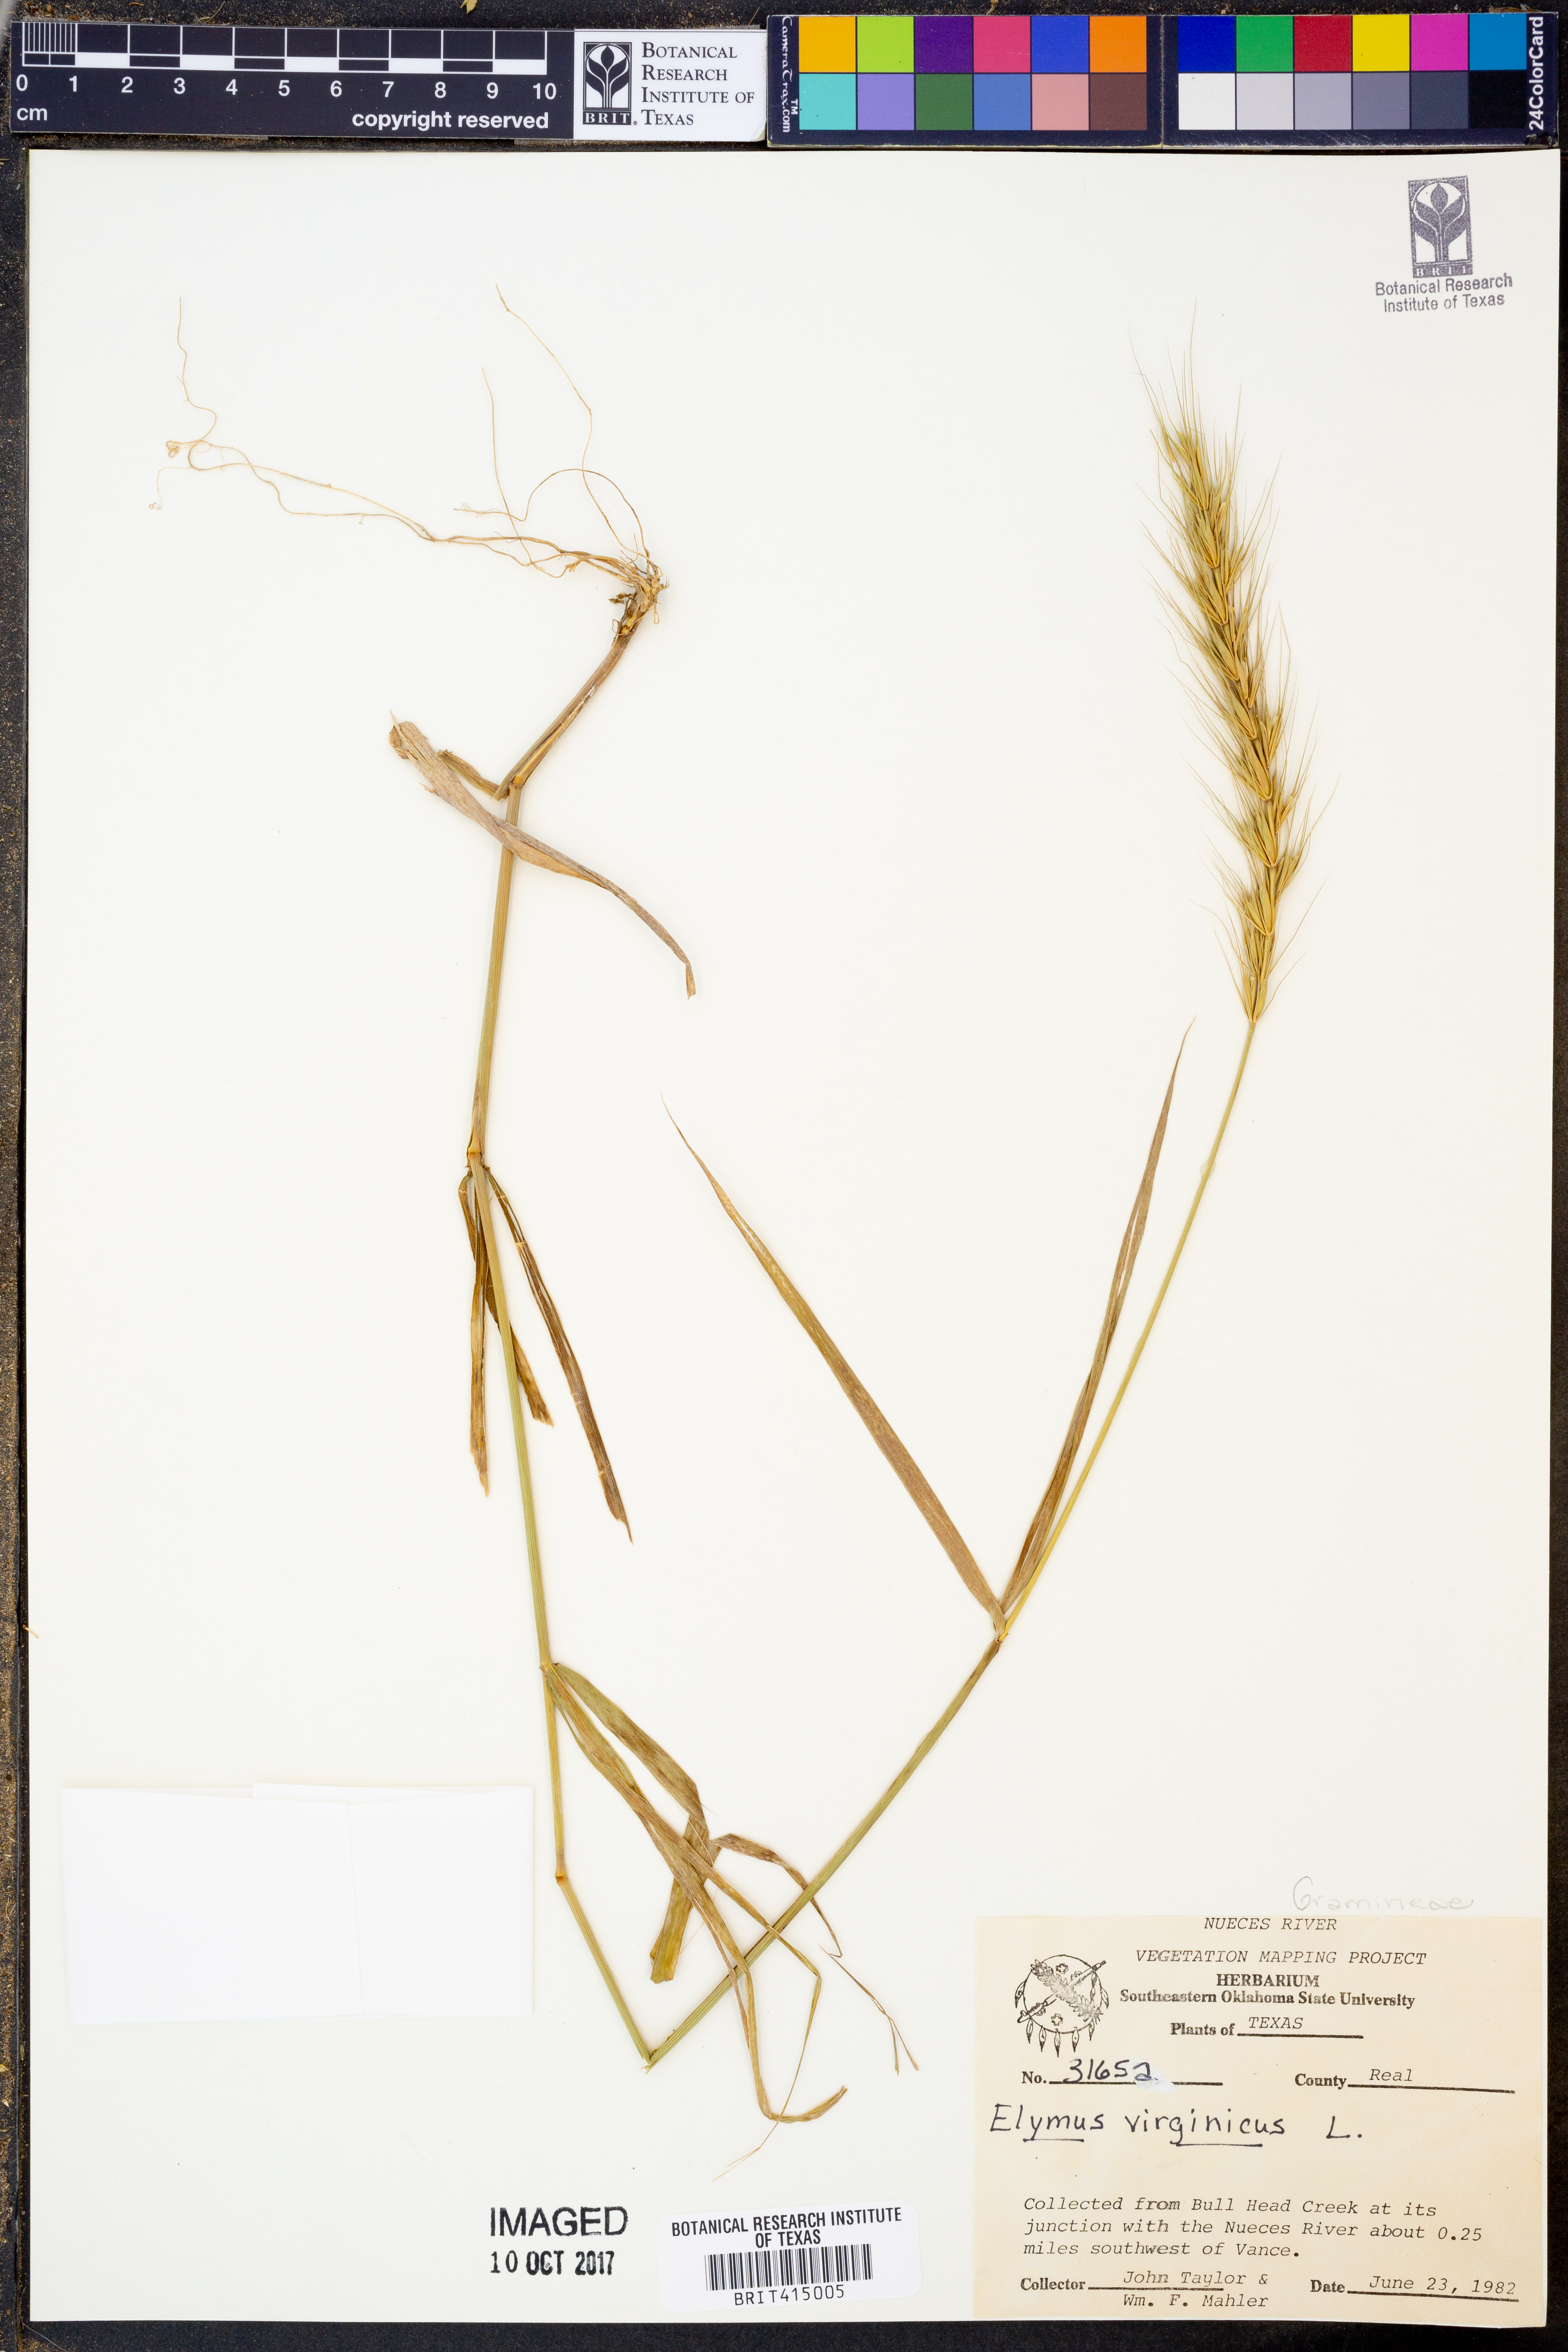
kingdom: Plantae
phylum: Tracheophyta
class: Liliopsida
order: Poales
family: Poaceae
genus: Elymus
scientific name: Elymus virginicus
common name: Common eastern wildrye
